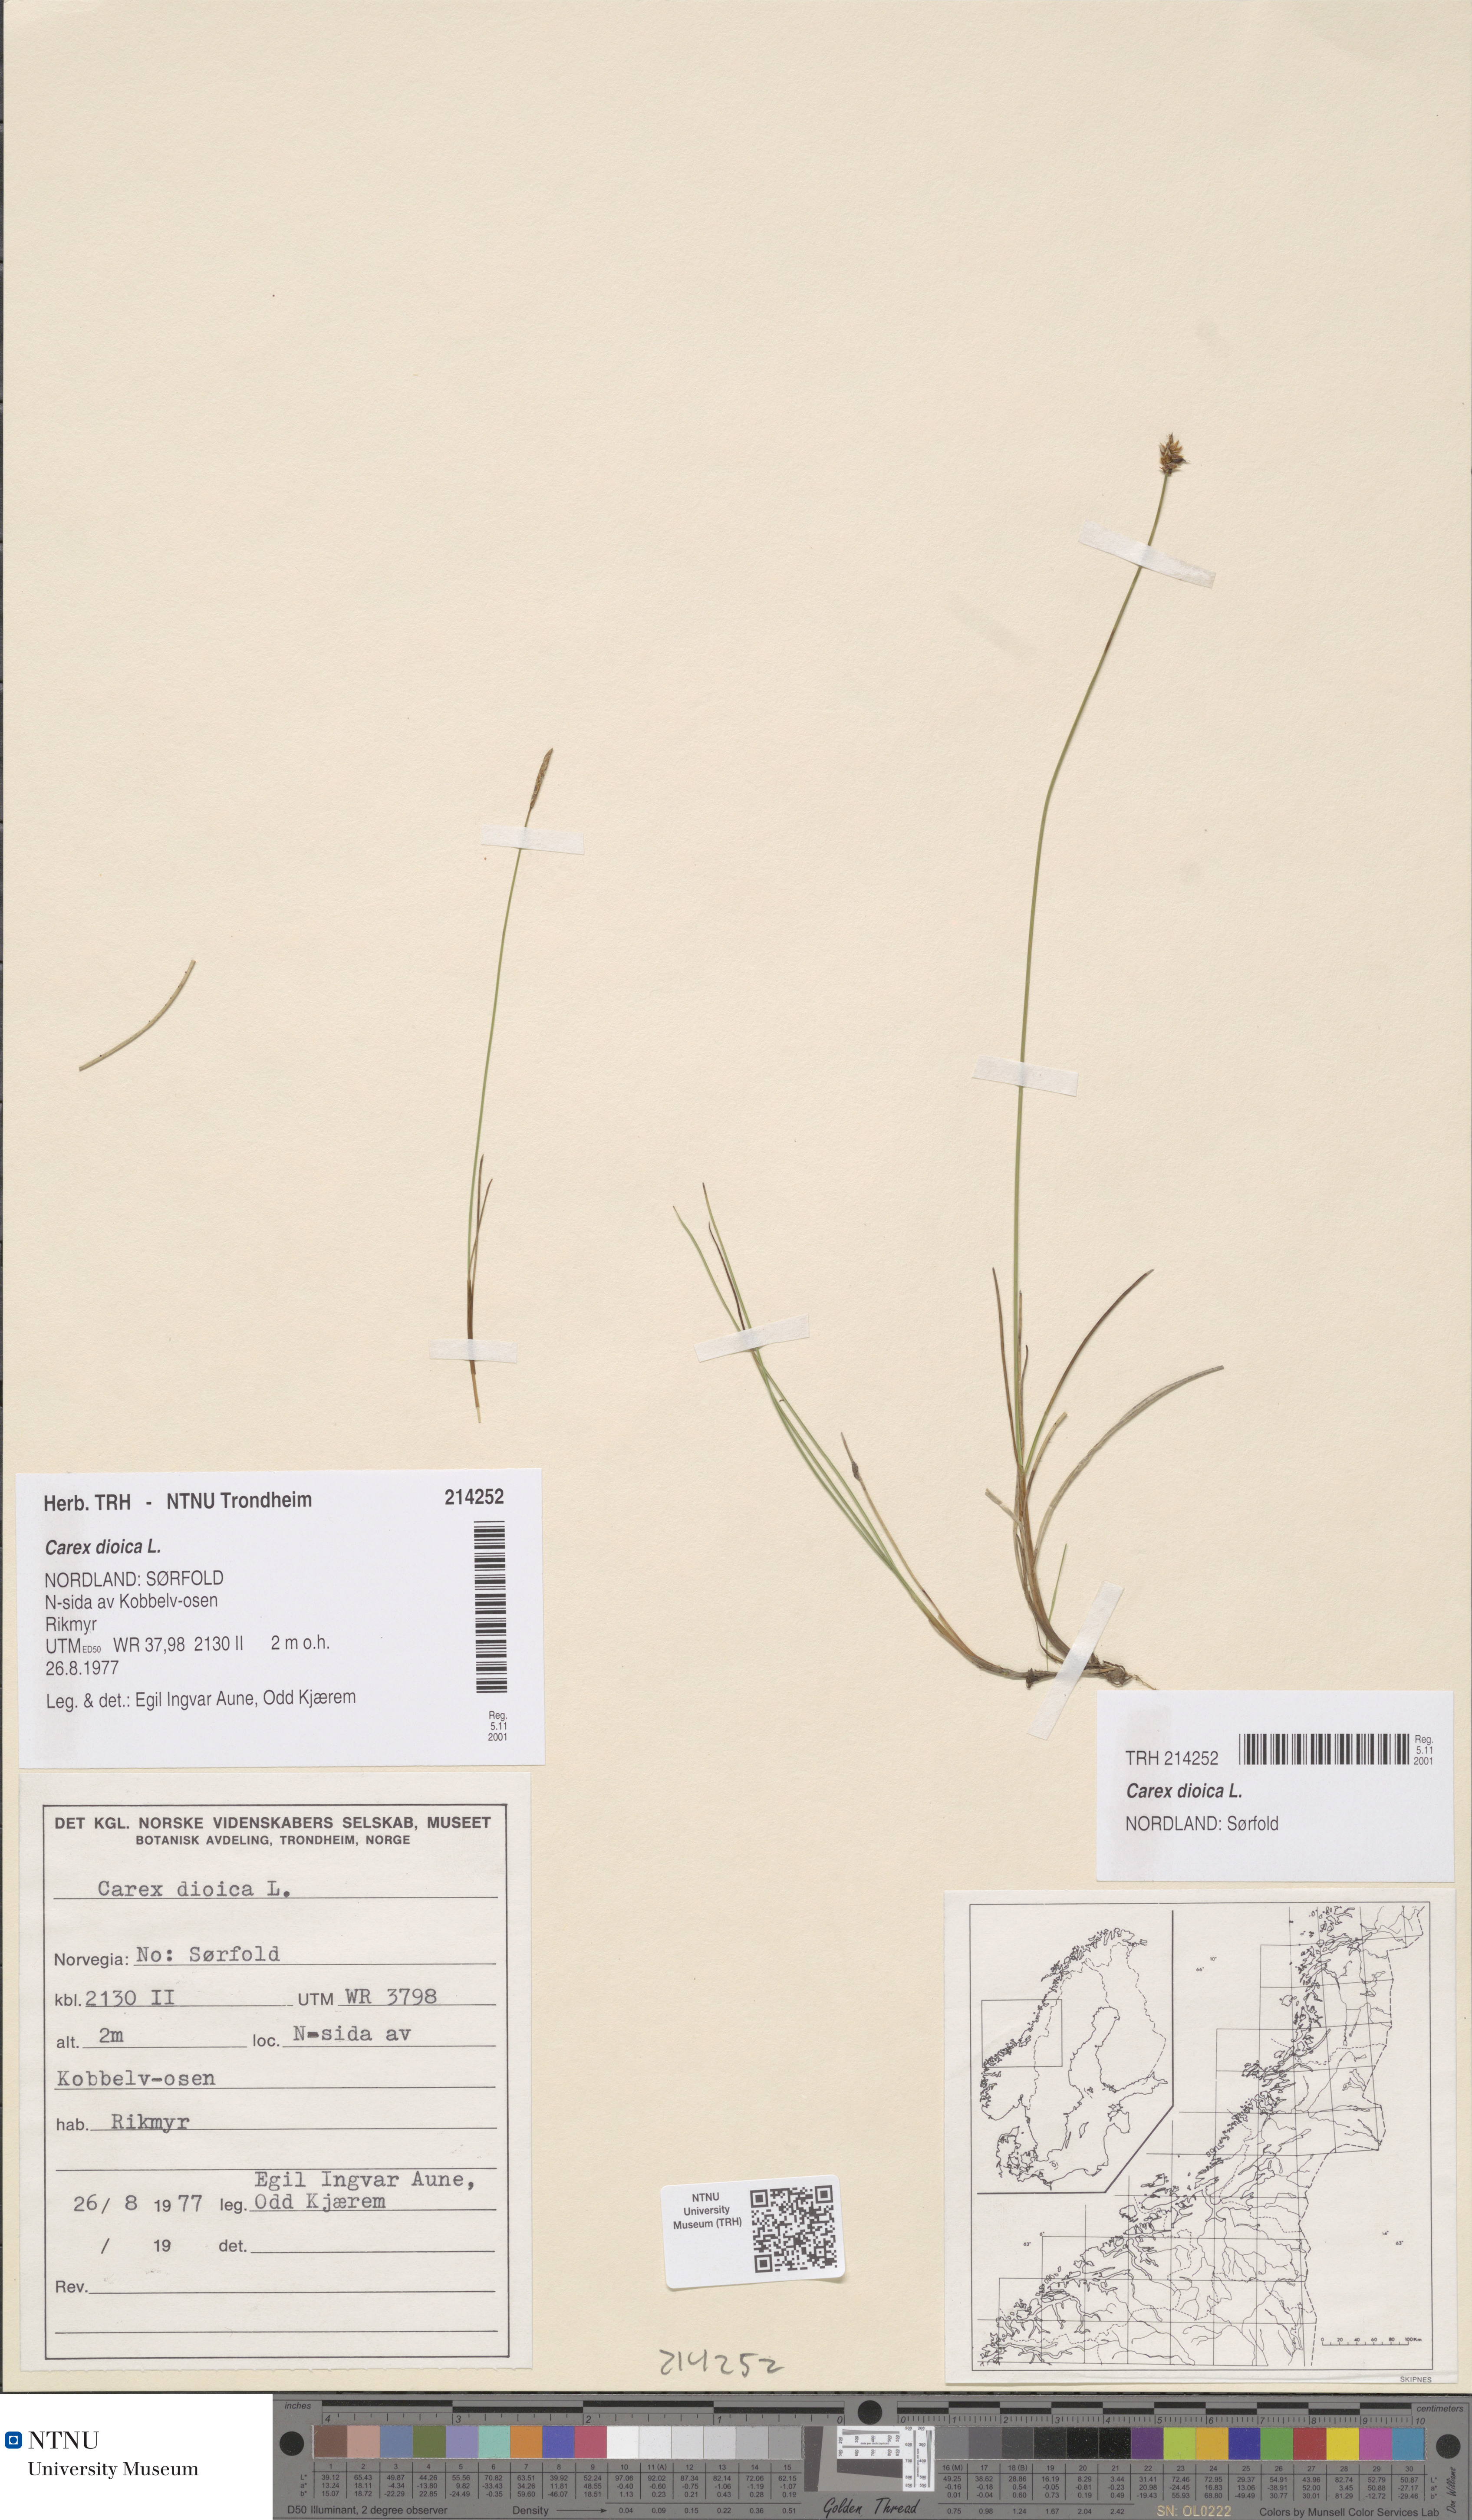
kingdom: Plantae
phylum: Tracheophyta
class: Liliopsida
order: Poales
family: Cyperaceae
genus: Carex
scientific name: Carex dioica
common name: Dioecious sedge
